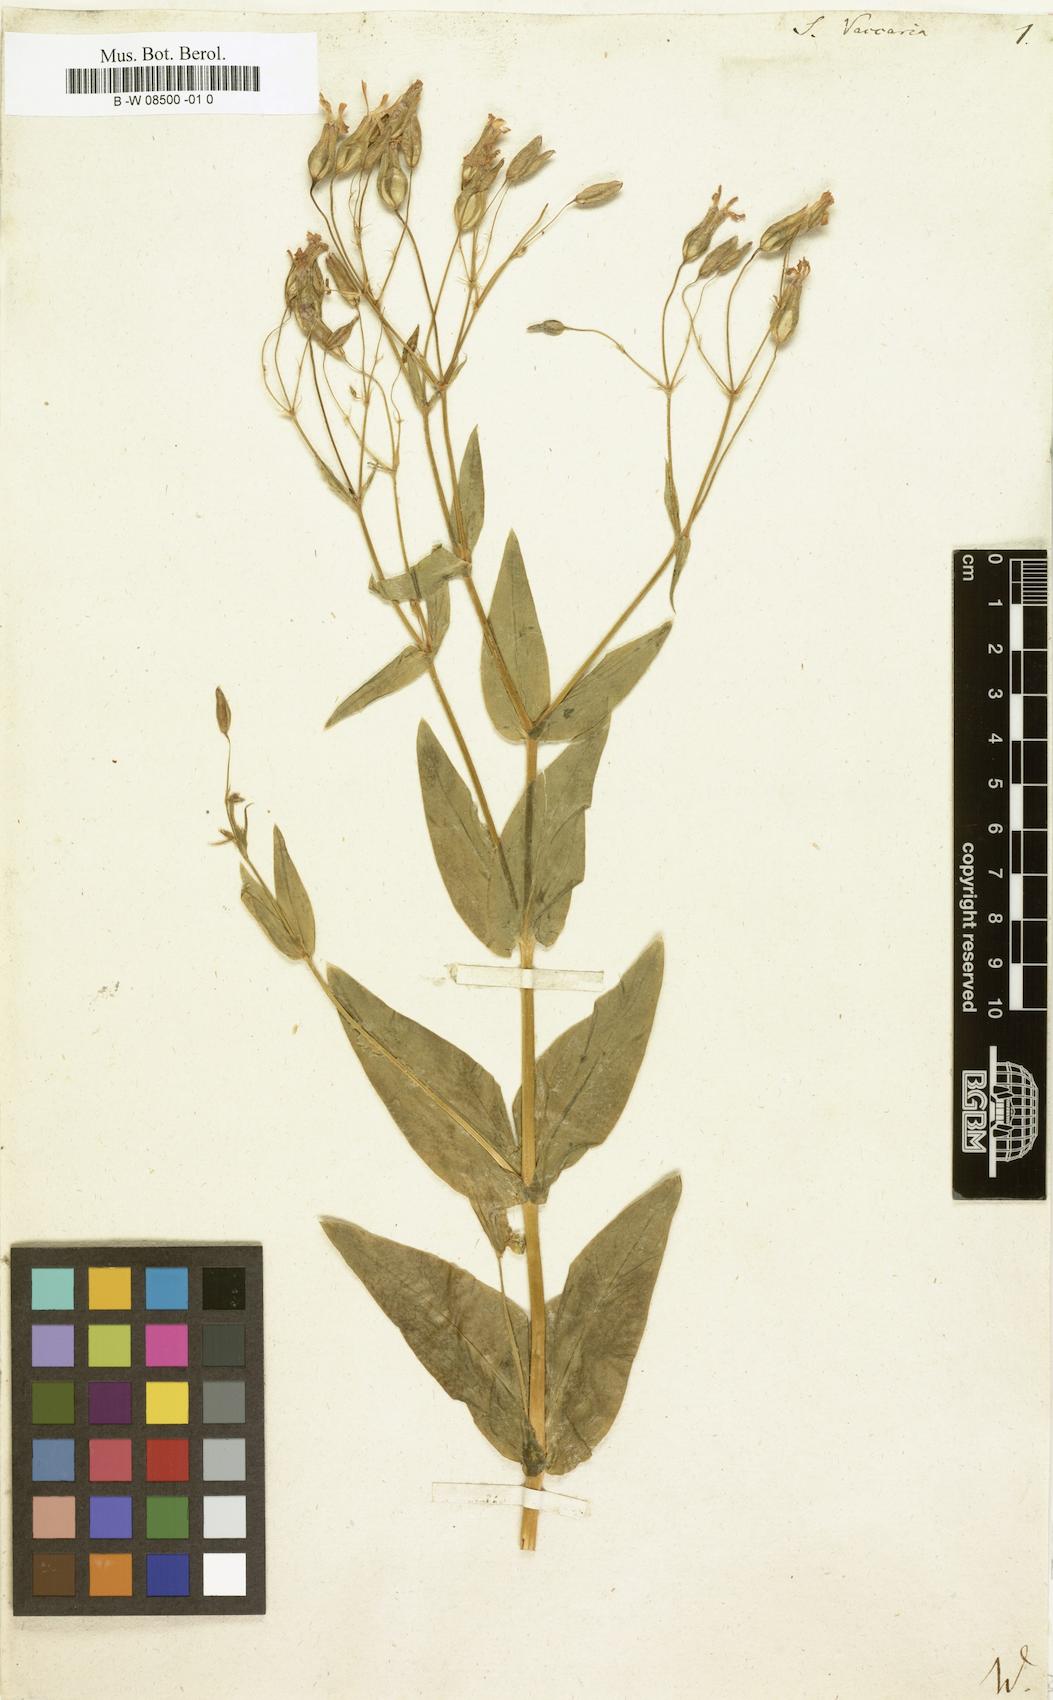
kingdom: Plantae
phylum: Tracheophyta
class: Magnoliopsida
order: Caryophyllales
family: Caryophyllaceae
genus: Gypsophila
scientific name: Gypsophila vaccaria
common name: Cow soapwort
